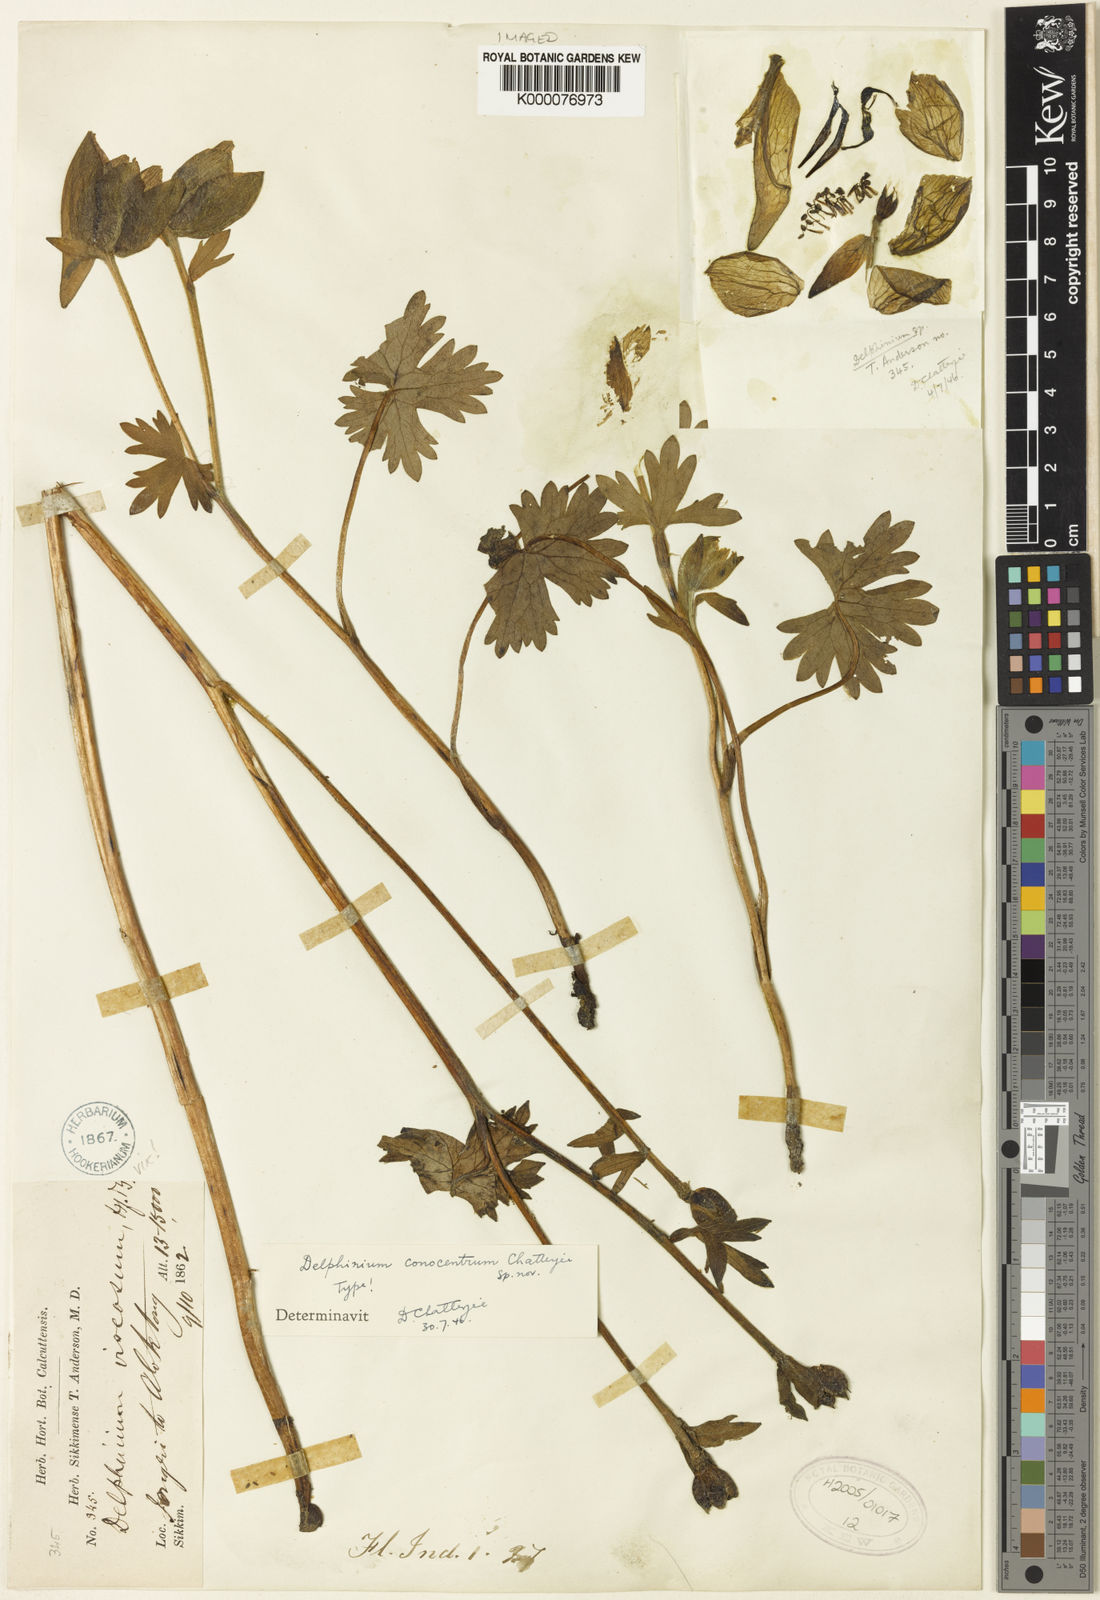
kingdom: Plantae
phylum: Tracheophyta
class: Magnoliopsida
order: Ranunculales
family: Ranunculaceae
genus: Delphinium
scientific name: Delphinium viscosum
